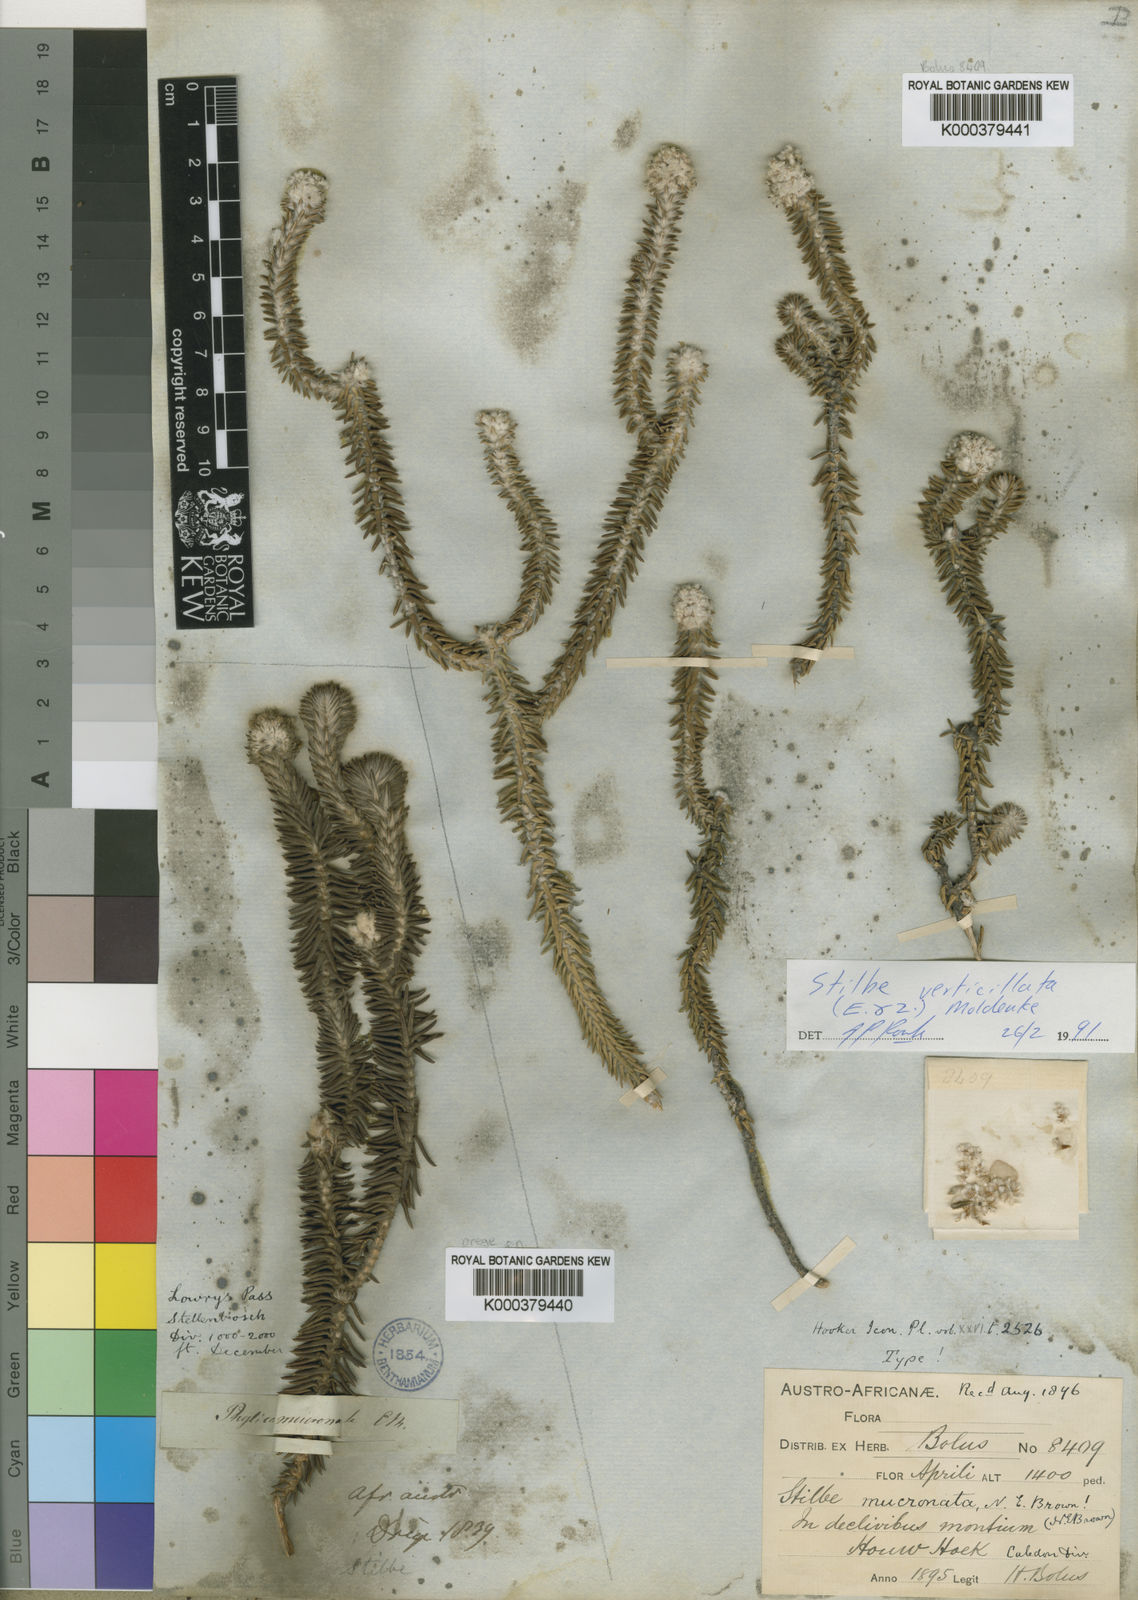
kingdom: Plantae
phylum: Tracheophyta
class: Magnoliopsida
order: Lamiales
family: Stilbaceae
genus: Kogelbergia
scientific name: Kogelbergia
